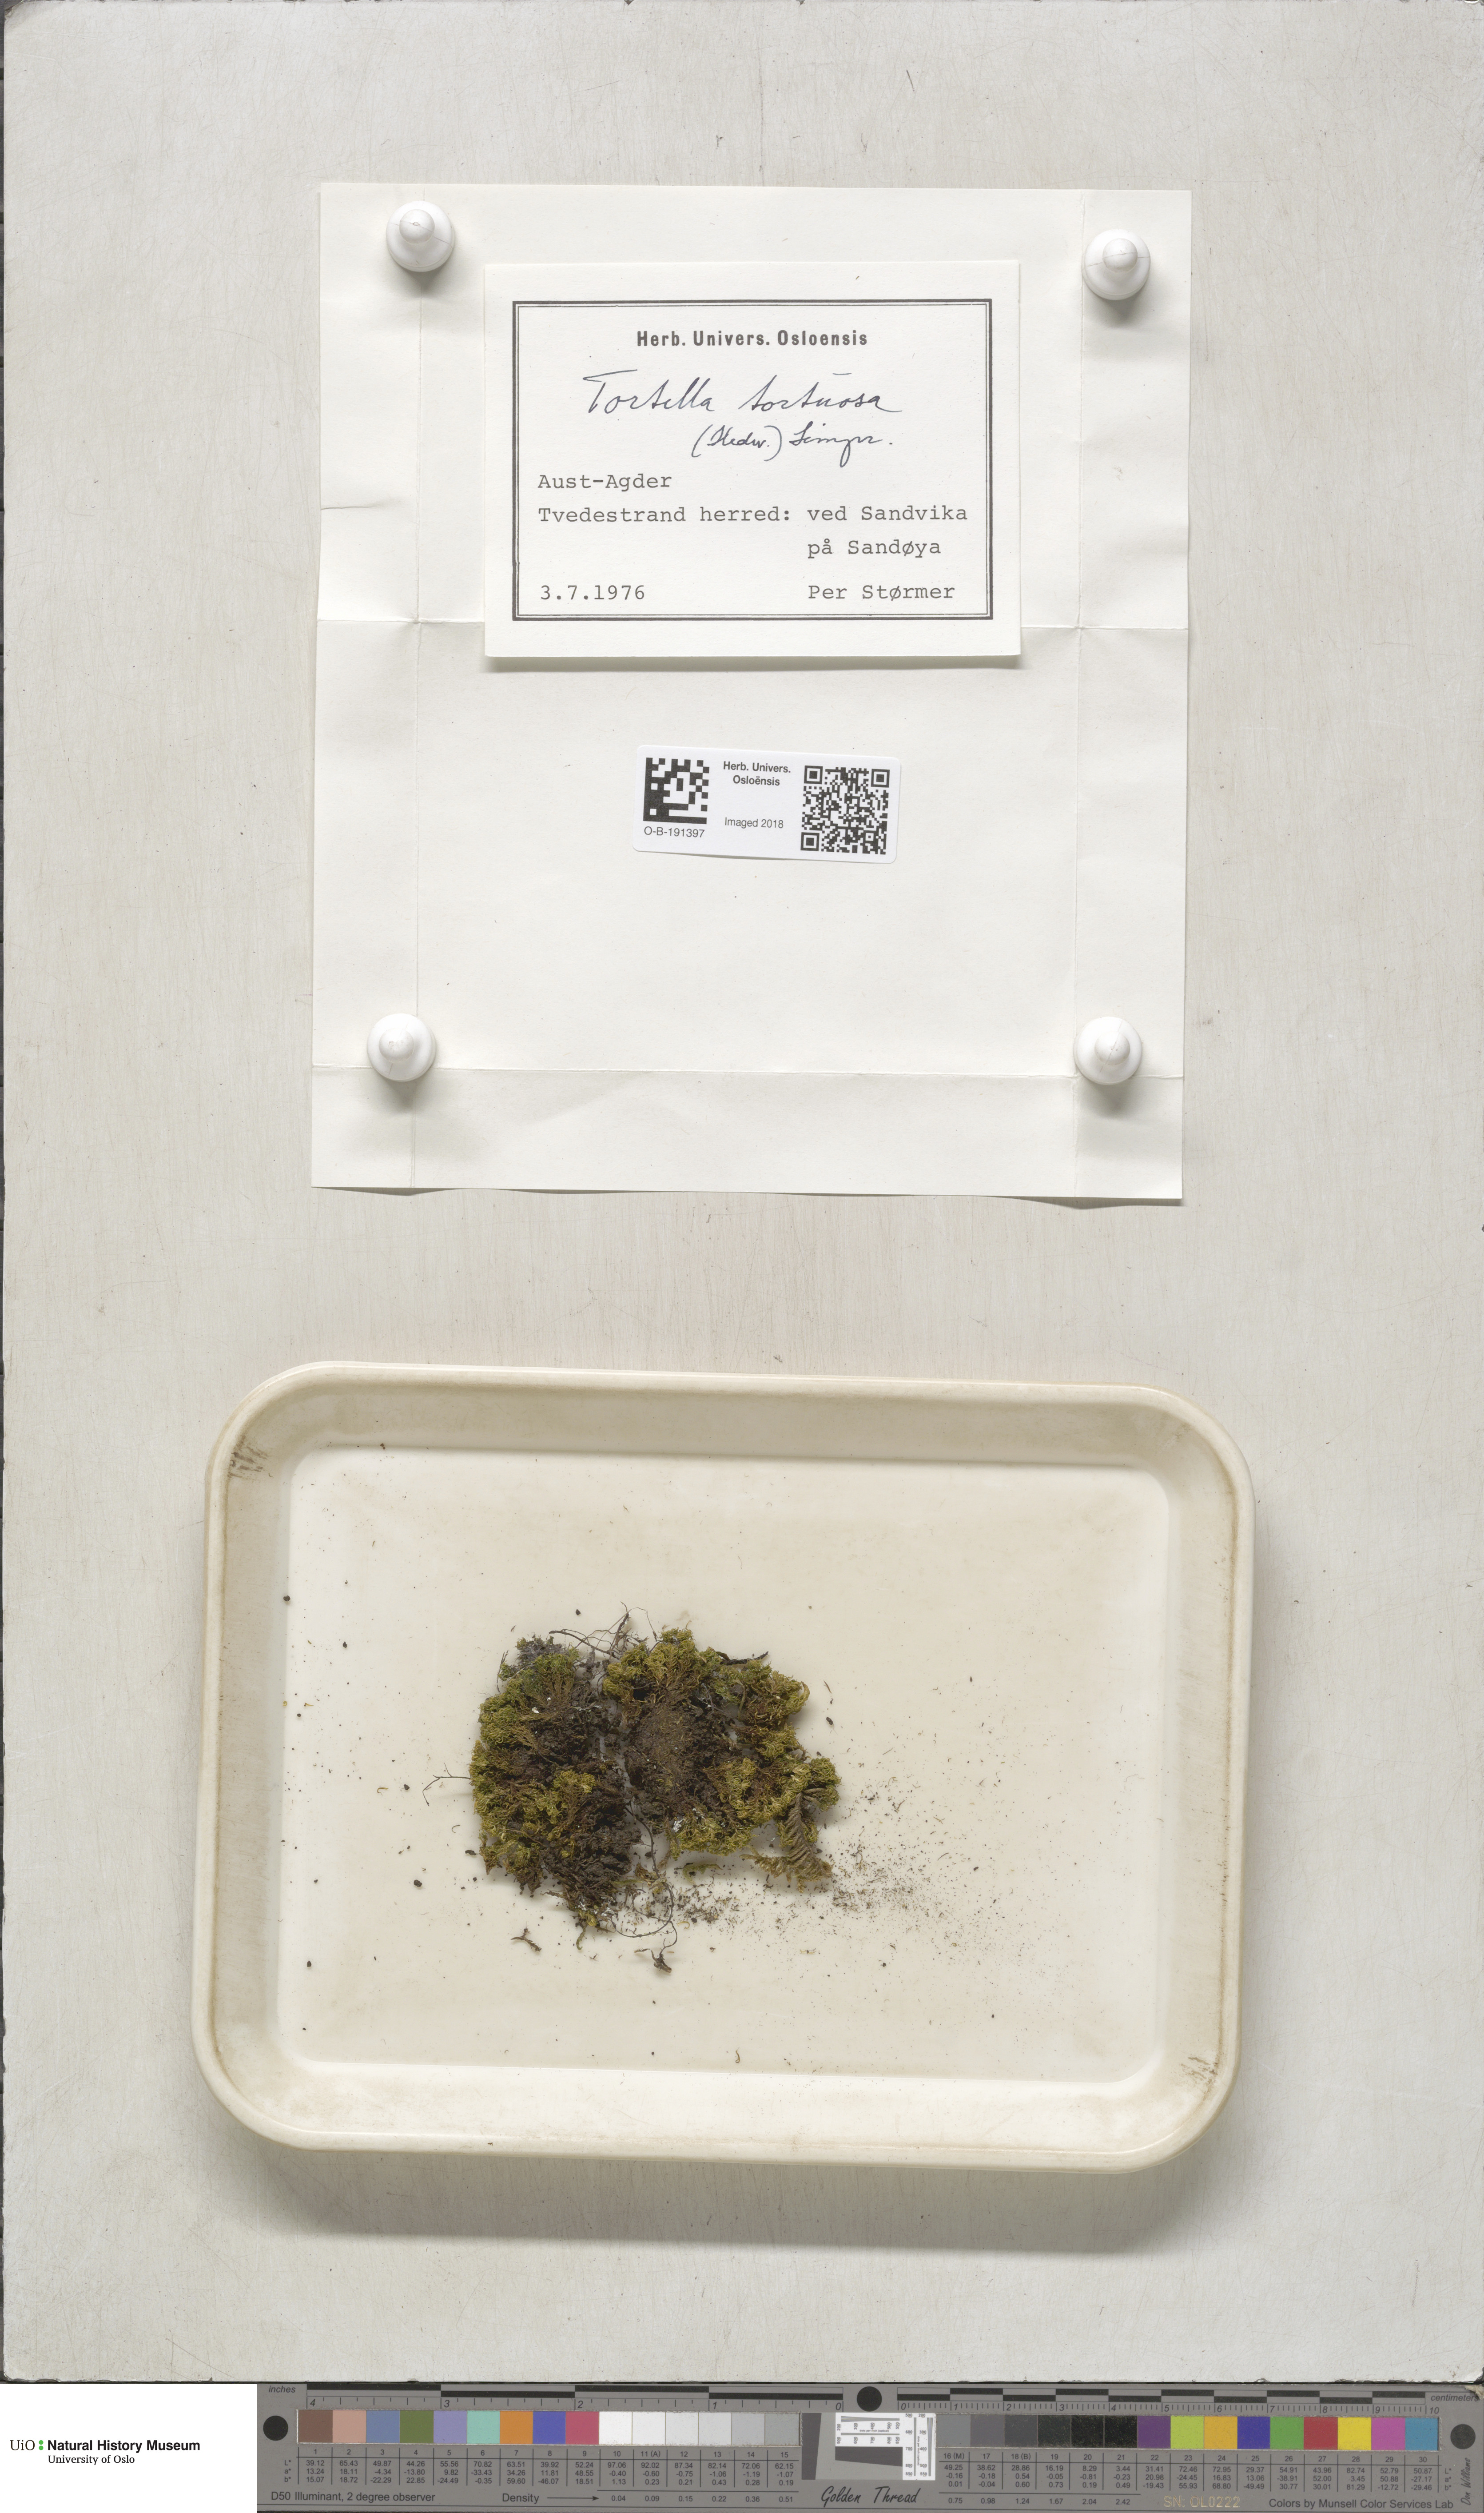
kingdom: Plantae
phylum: Bryophyta
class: Bryopsida
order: Pottiales
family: Pottiaceae
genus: Tortella
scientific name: Tortella tortuosa
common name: Frizzled crisp moss
